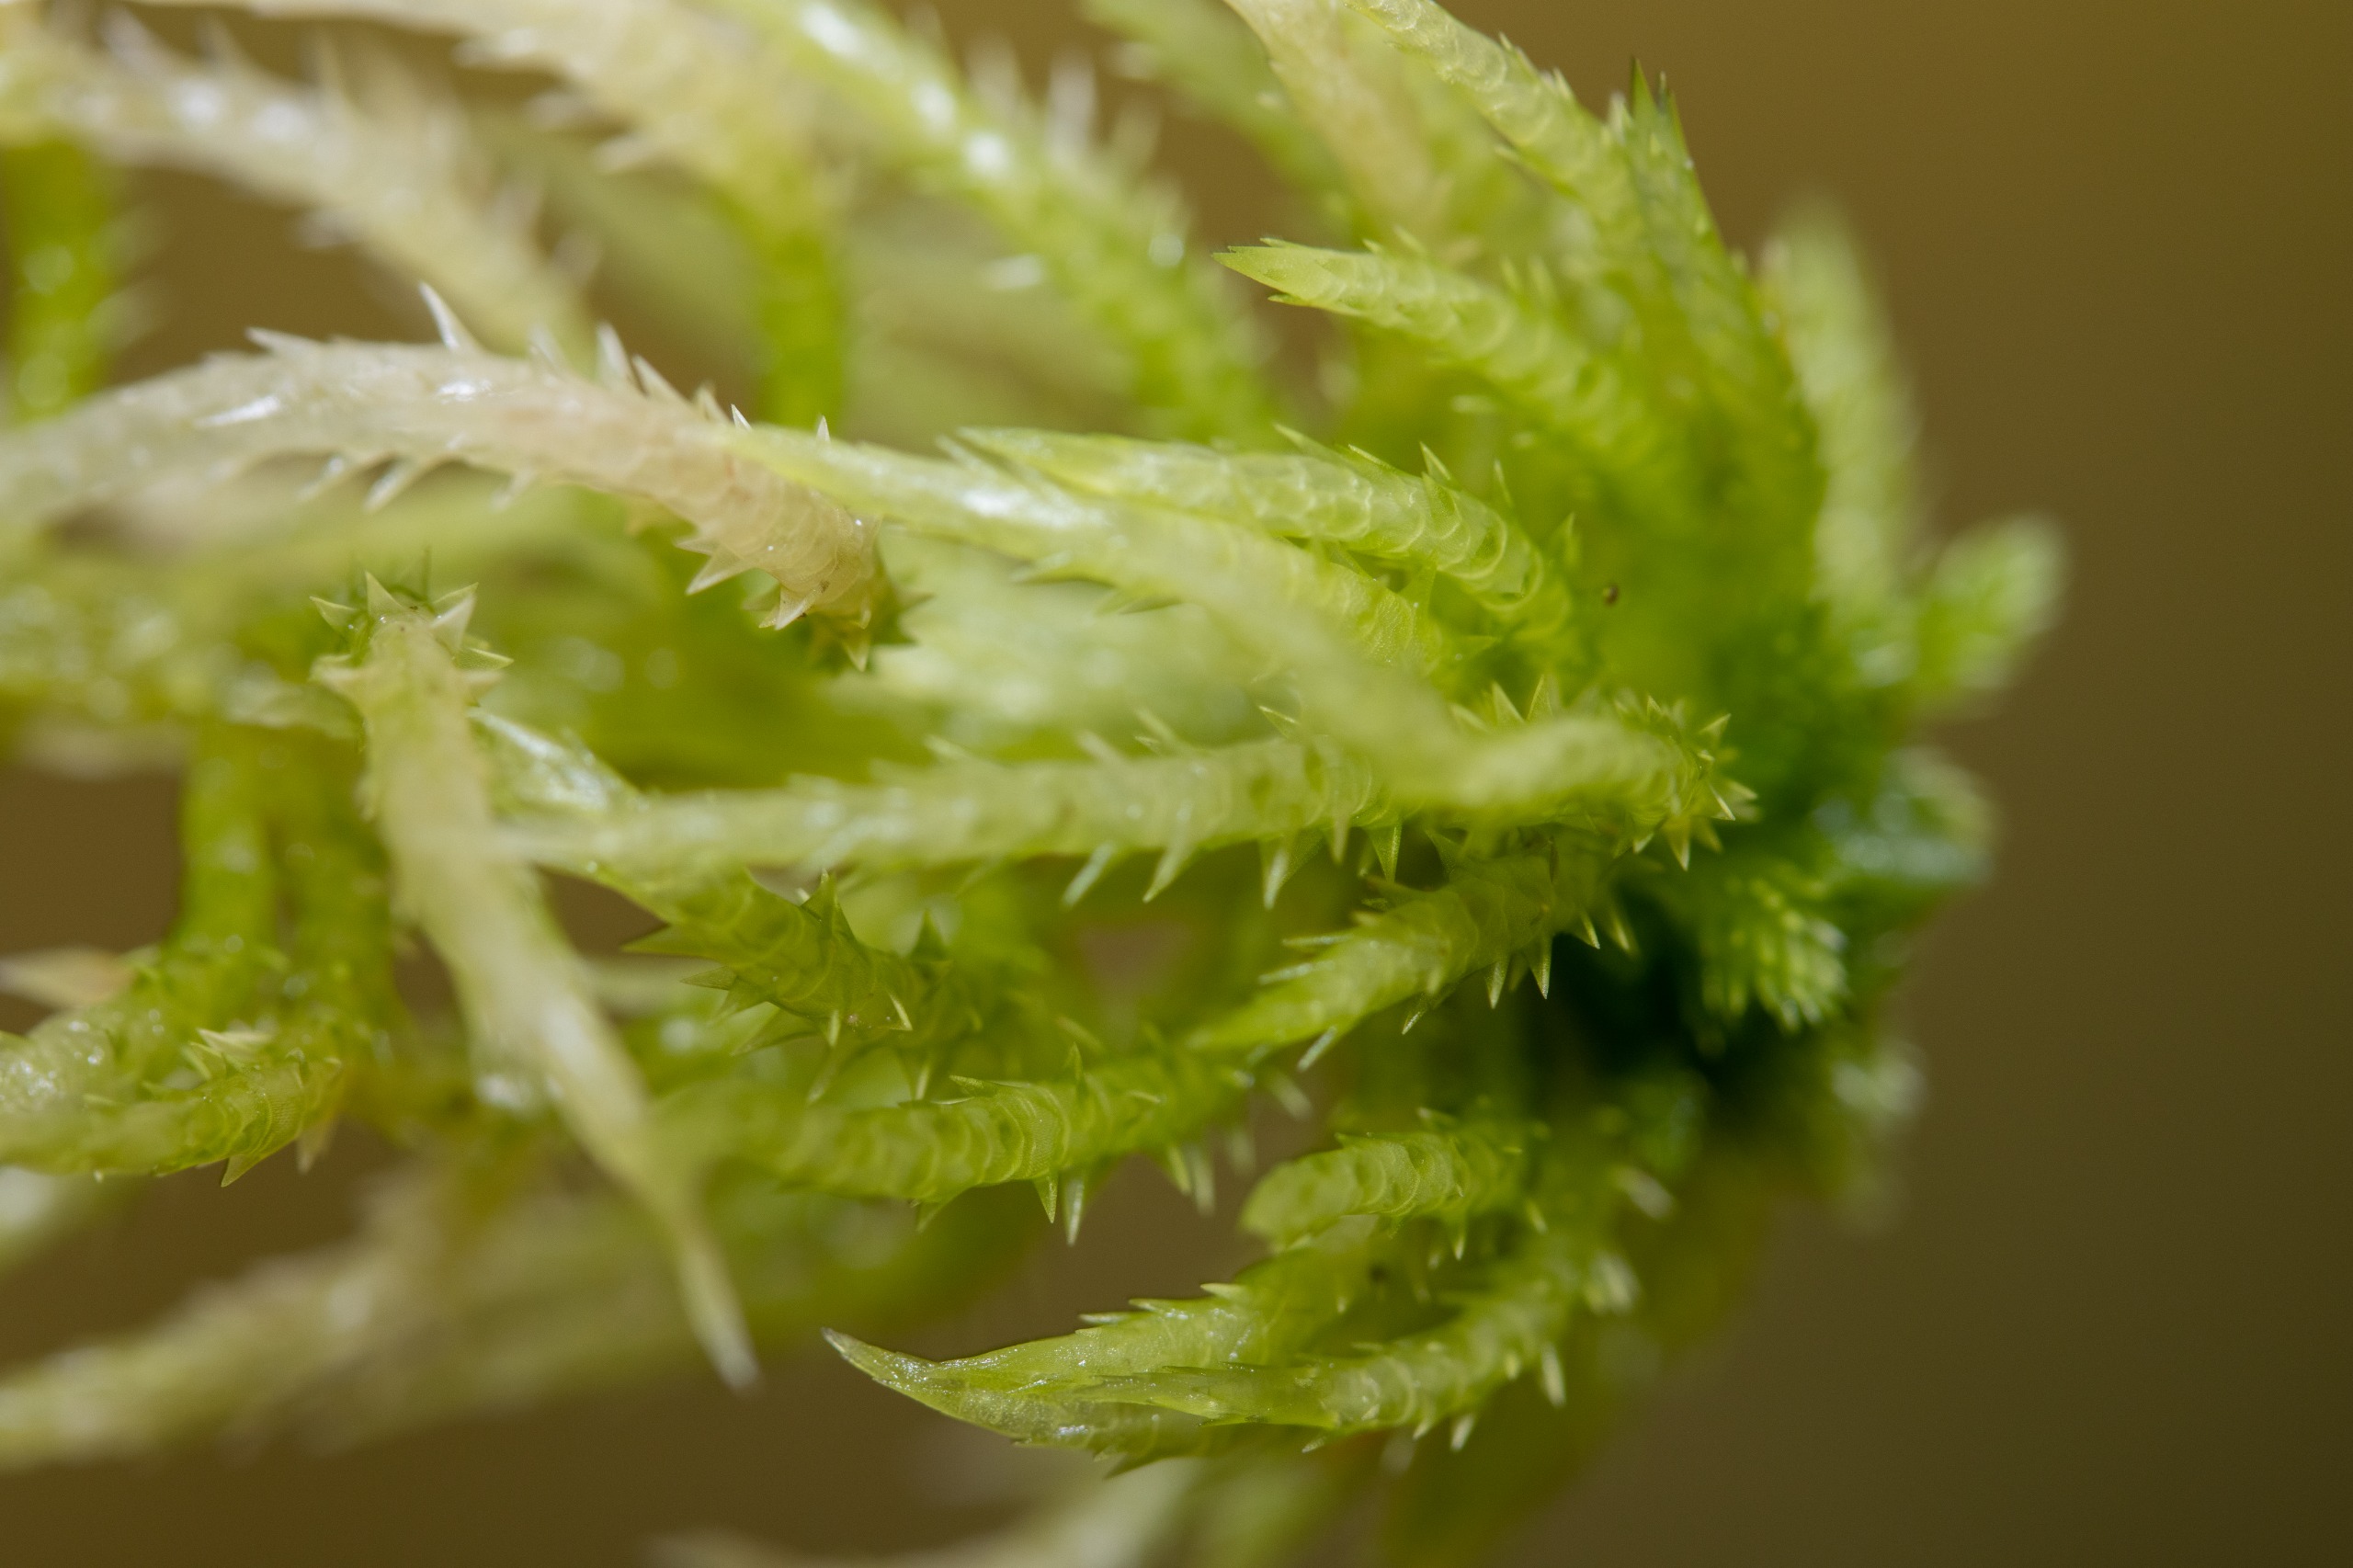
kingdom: Plantae
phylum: Bryophyta
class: Sphagnopsida
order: Sphagnales
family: Sphagnaceae
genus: Sphagnum
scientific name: Sphagnum squarrosum
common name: Udspærret tørvemos
